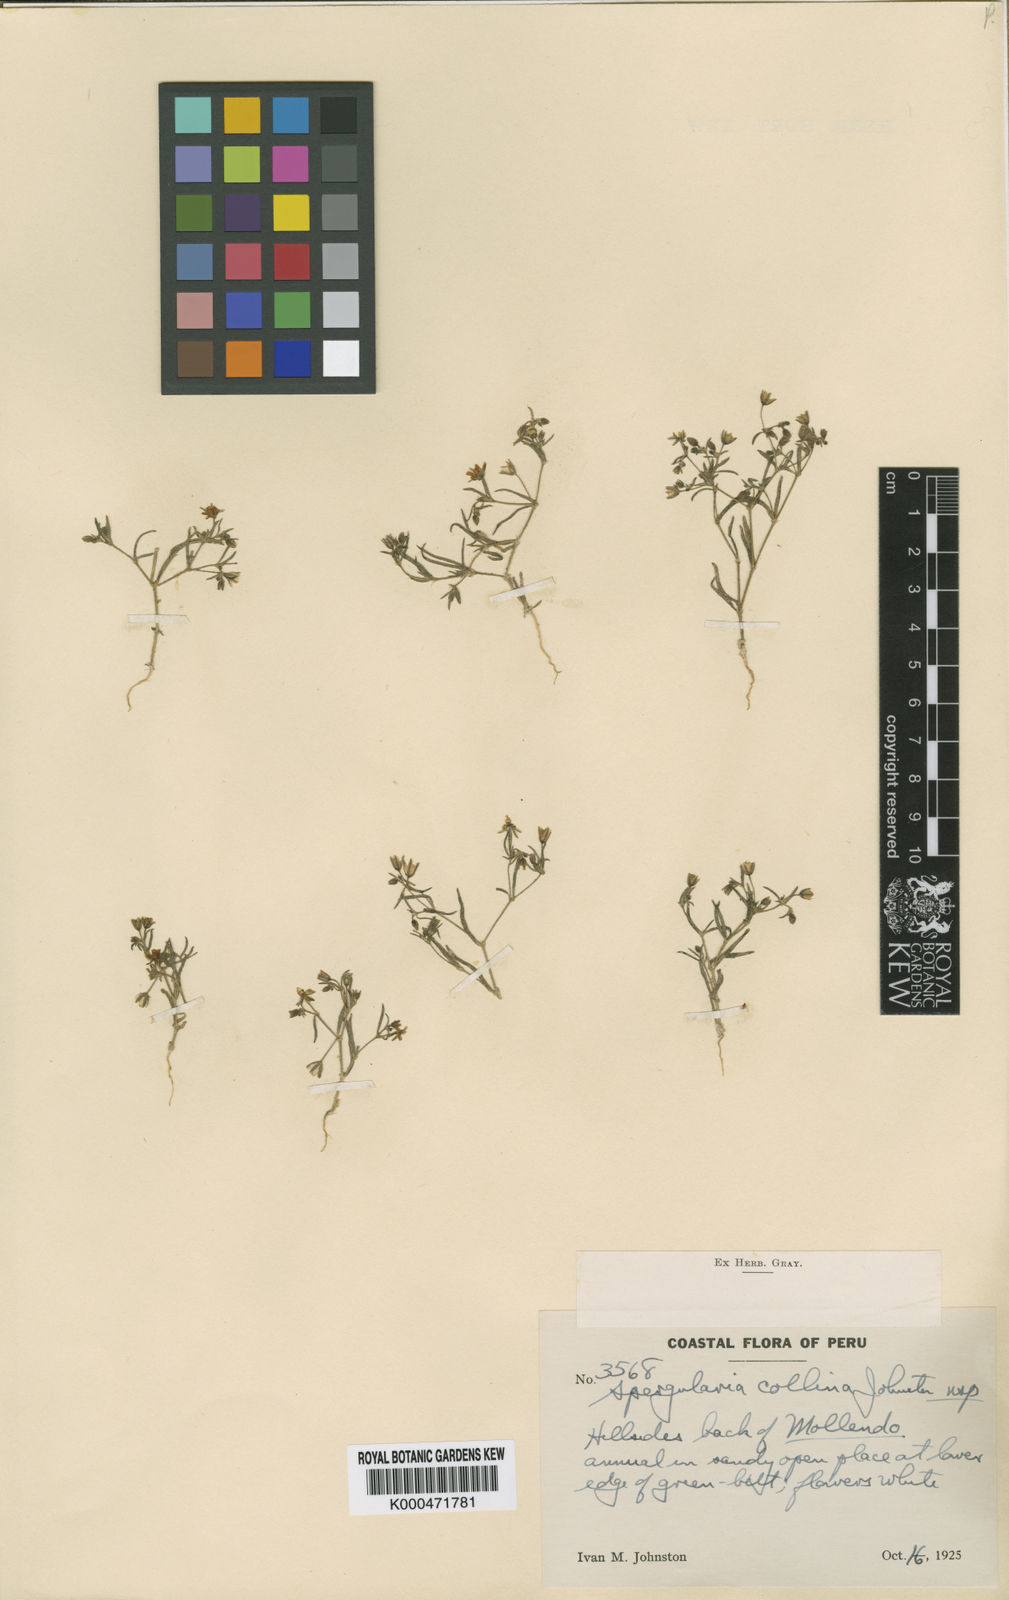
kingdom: Plantae
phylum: Tracheophyta
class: Magnoliopsida
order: Caryophyllales
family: Caryophyllaceae
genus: Spergularia
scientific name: Spergularia collina
